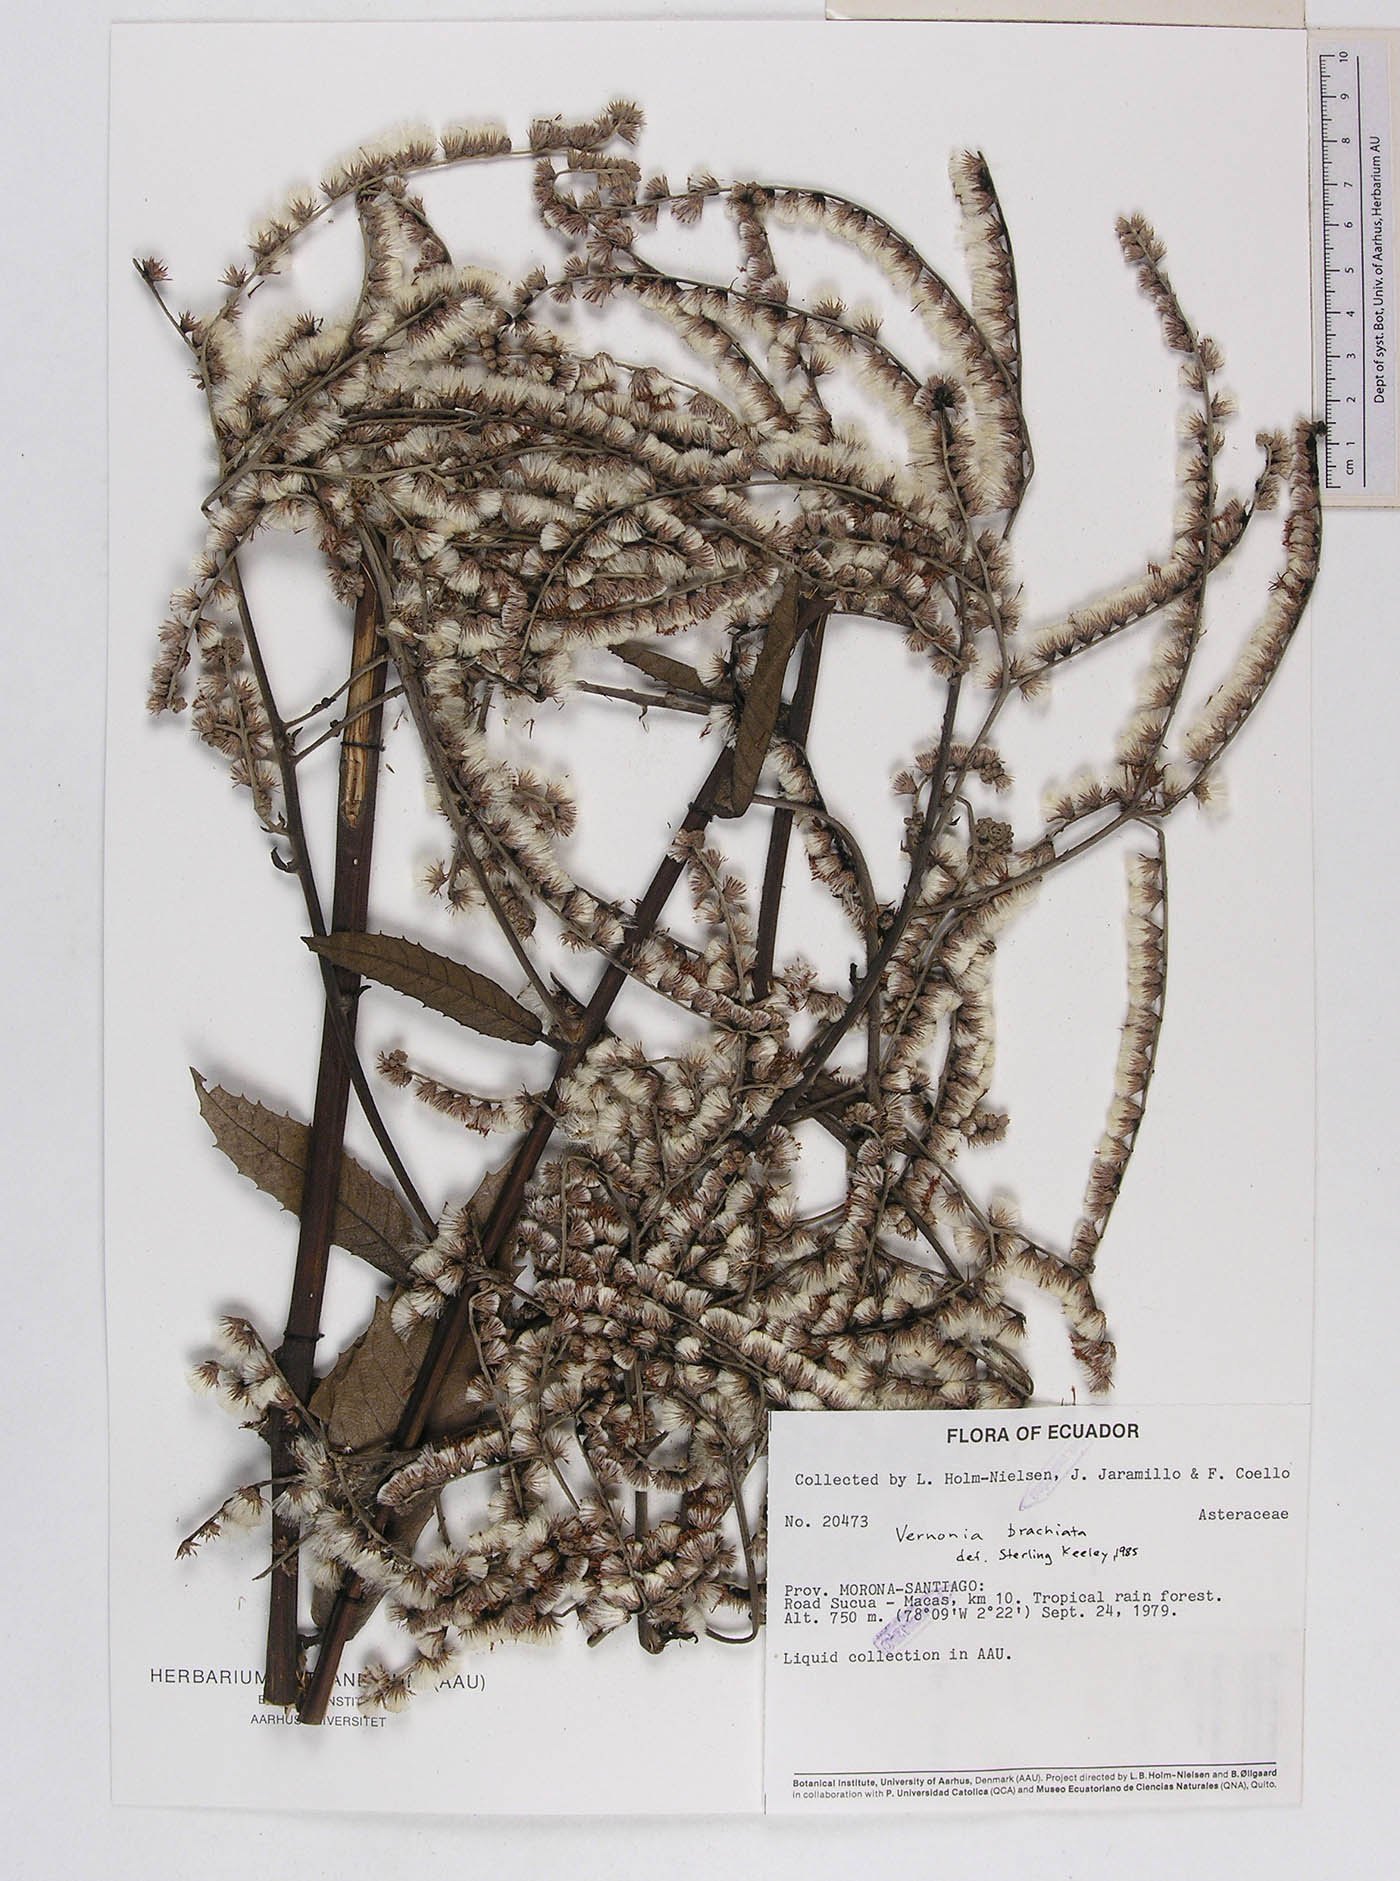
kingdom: Plantae
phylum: Tracheophyta
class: Magnoliopsida
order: Asterales
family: Asteraceae
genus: Eirmocephala
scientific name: Eirmocephala megaphylla
